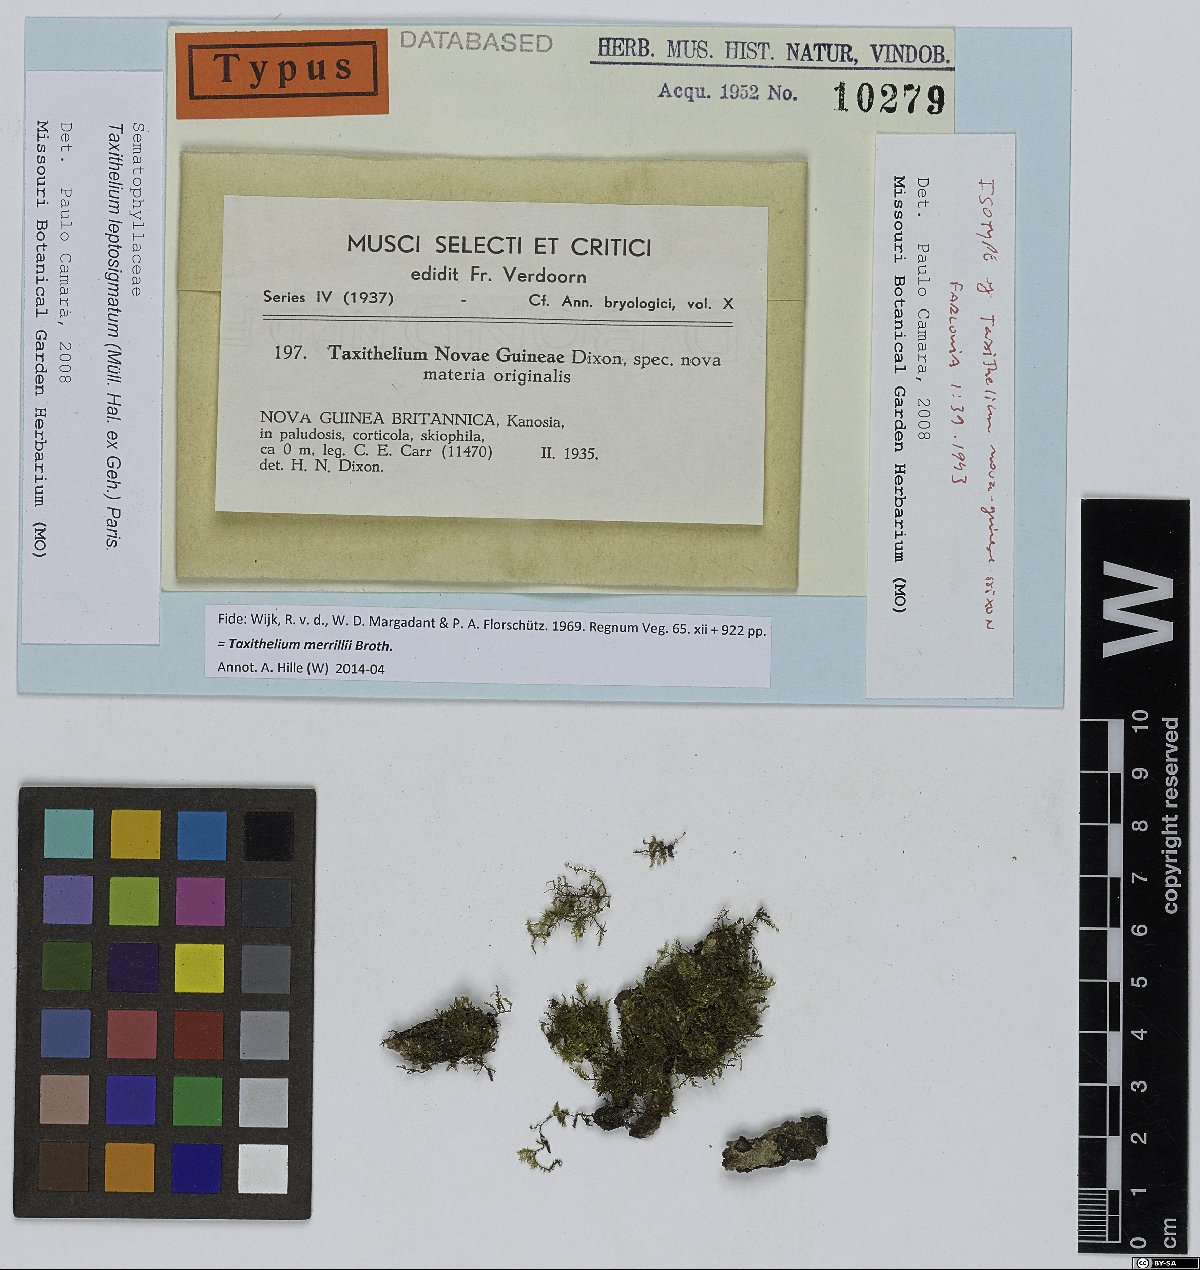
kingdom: Plantae
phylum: Bryophyta
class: Bryopsida
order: Hypnales
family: Pylaisiadelphaceae
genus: Taxithelium
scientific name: Taxithelium leptosigmatum
